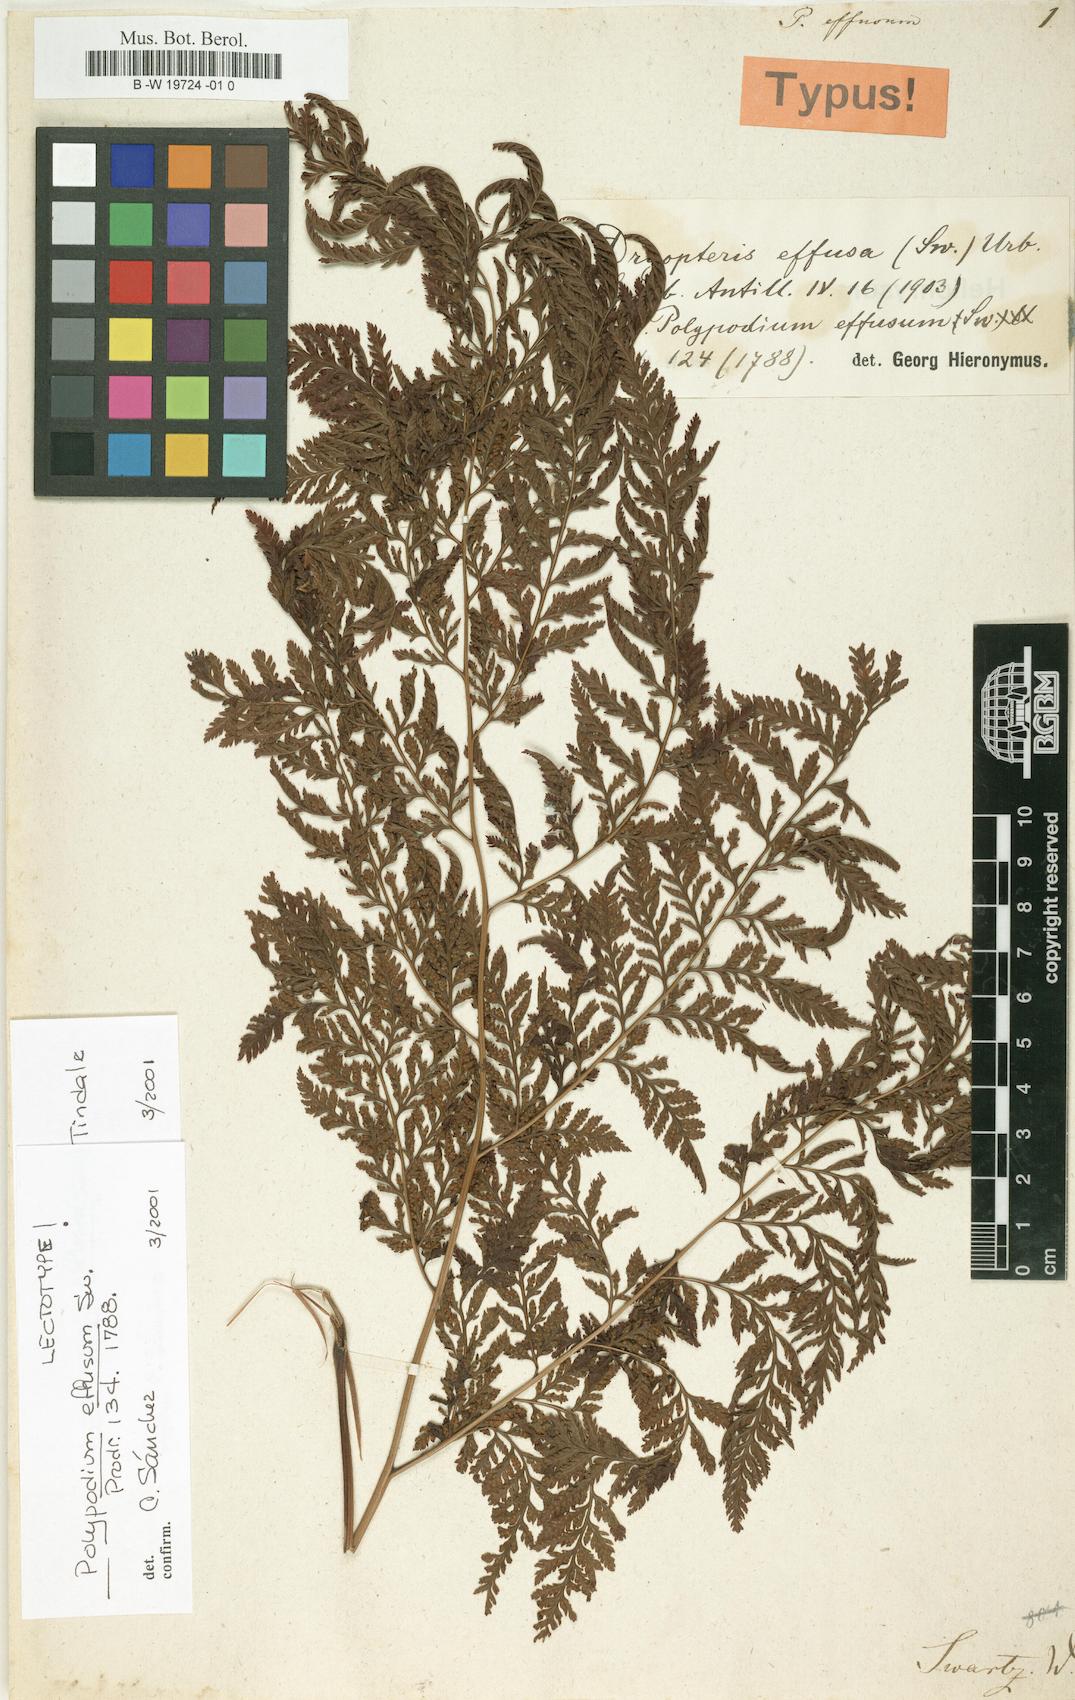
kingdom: Plantae
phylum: Tracheophyta
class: Polypodiopsida
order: Polypodiales
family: Dryopteridaceae
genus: Parapolystichum
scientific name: Parapolystichum effusum
